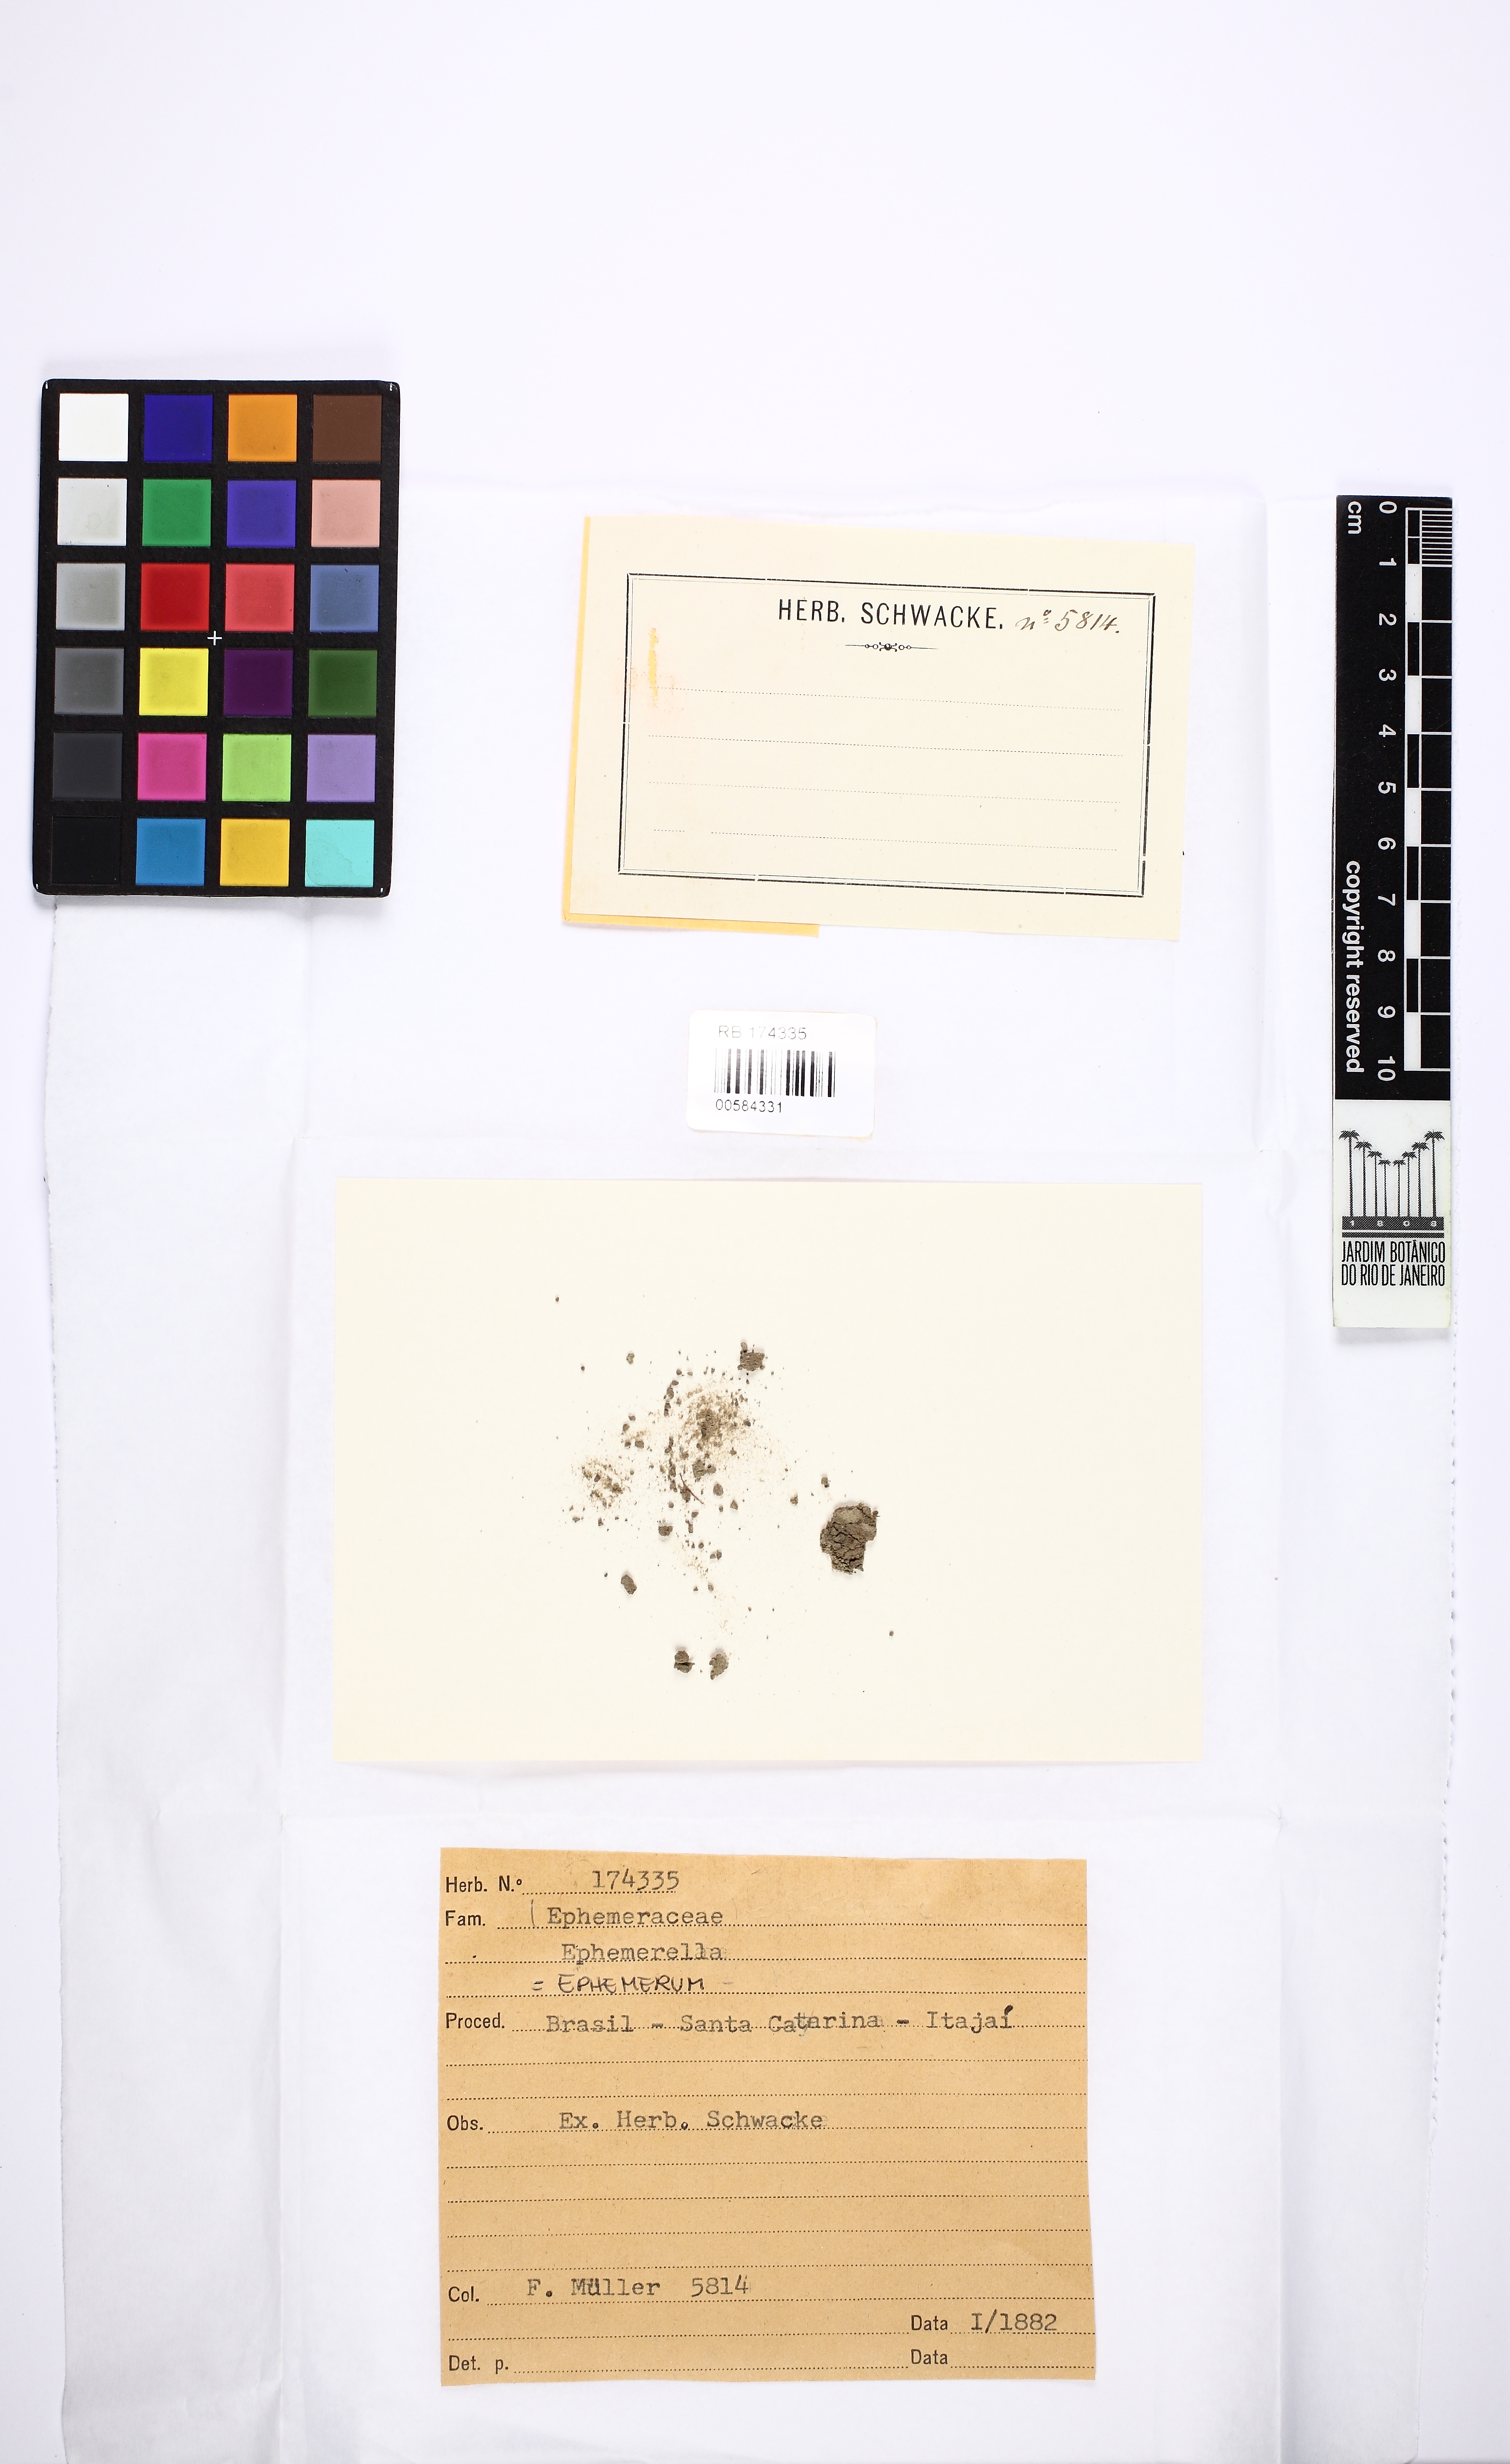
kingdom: Plantae
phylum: Bryophyta
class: Bryopsida
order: Pottiales
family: Ephemeraceae
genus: Ephemerum
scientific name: Ephemerum serratum
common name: Serrated earth moss
